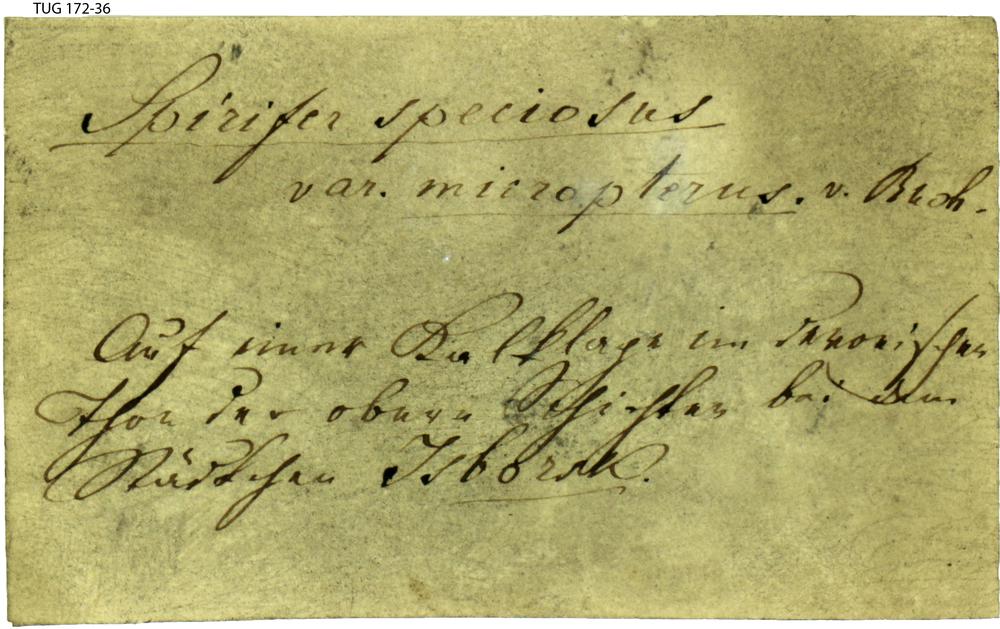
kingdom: Animalia
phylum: Brachiopoda
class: Rhynchonellata
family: Spiriferidae
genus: Spirifer
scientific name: Spirifer
